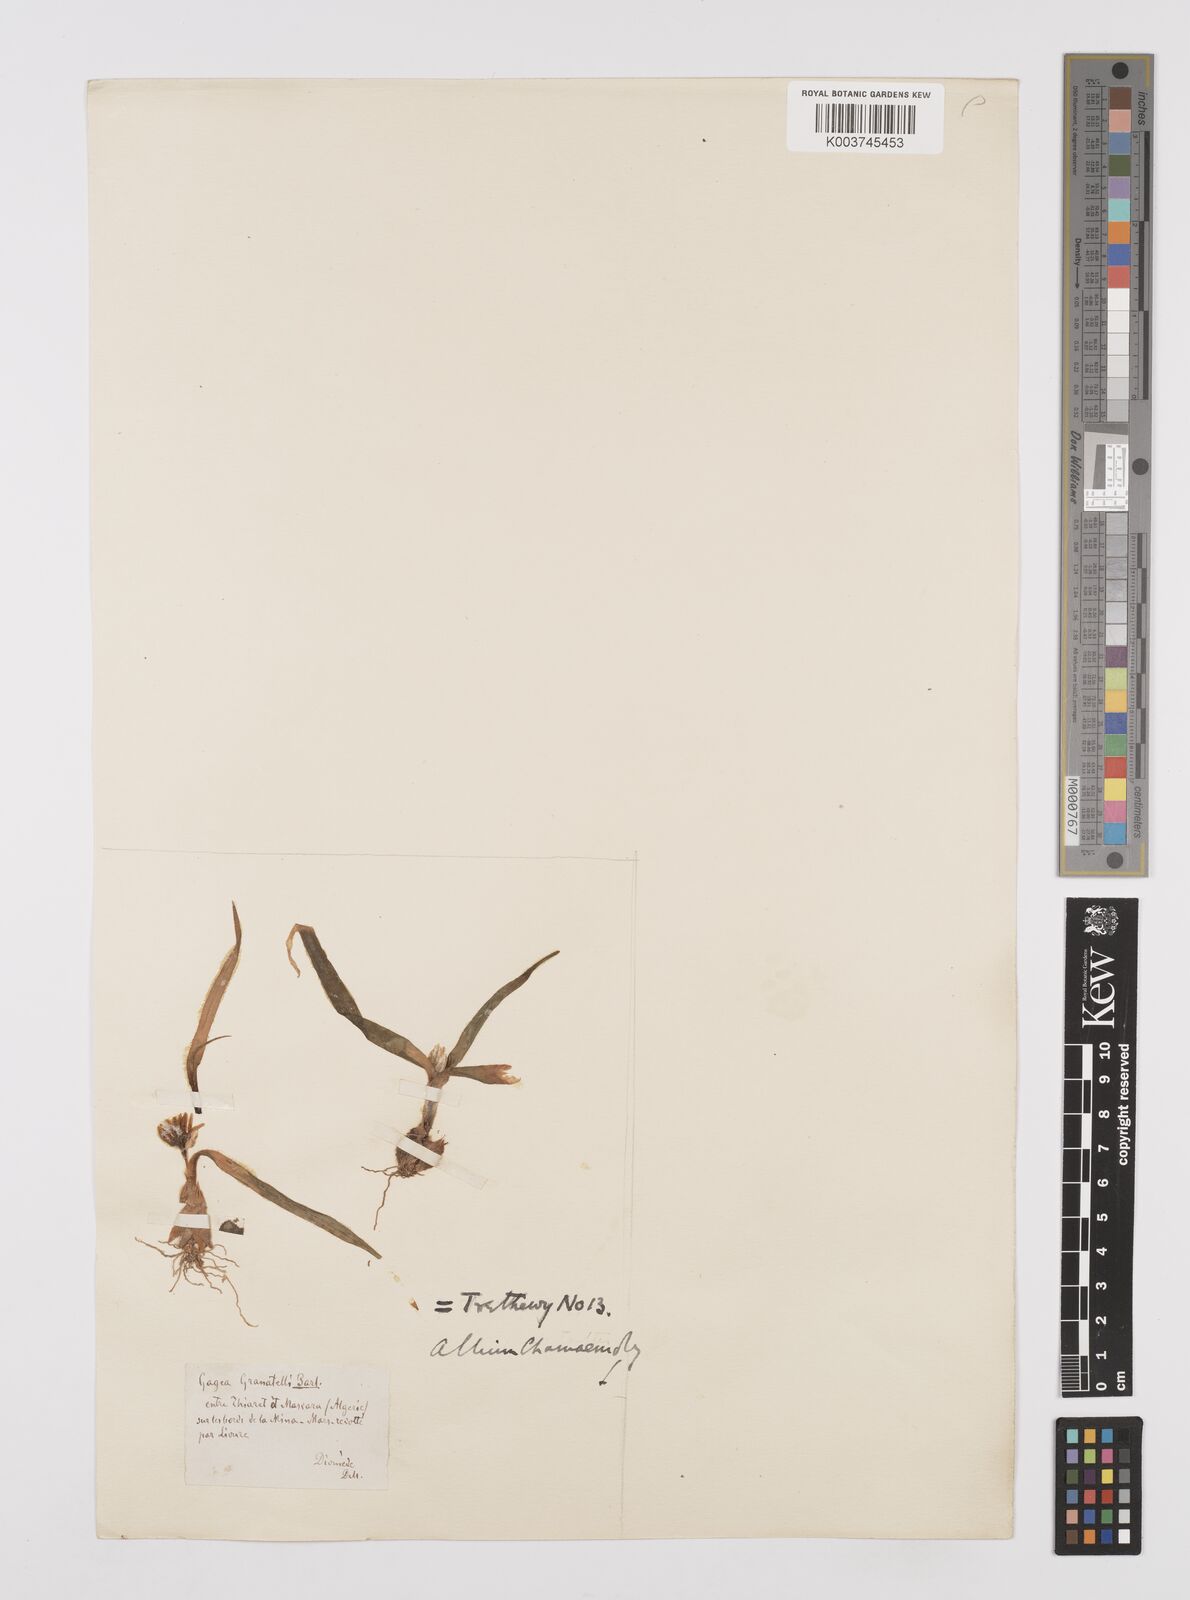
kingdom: Plantae
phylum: Tracheophyta
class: Liliopsida
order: Asparagales
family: Amaryllidaceae
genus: Allium
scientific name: Allium chamaemoly
